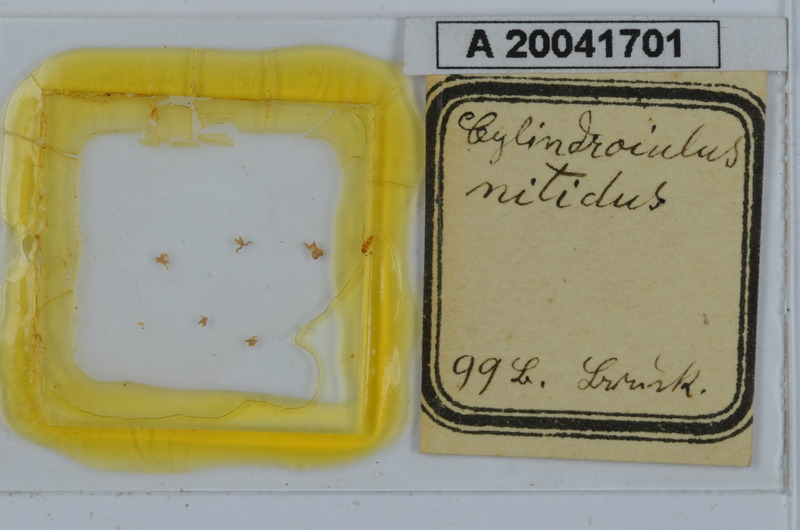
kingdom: Animalia
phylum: Arthropoda
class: Diplopoda
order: Julida
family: Julidae
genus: Allajulus
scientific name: Allajulus nitidus
